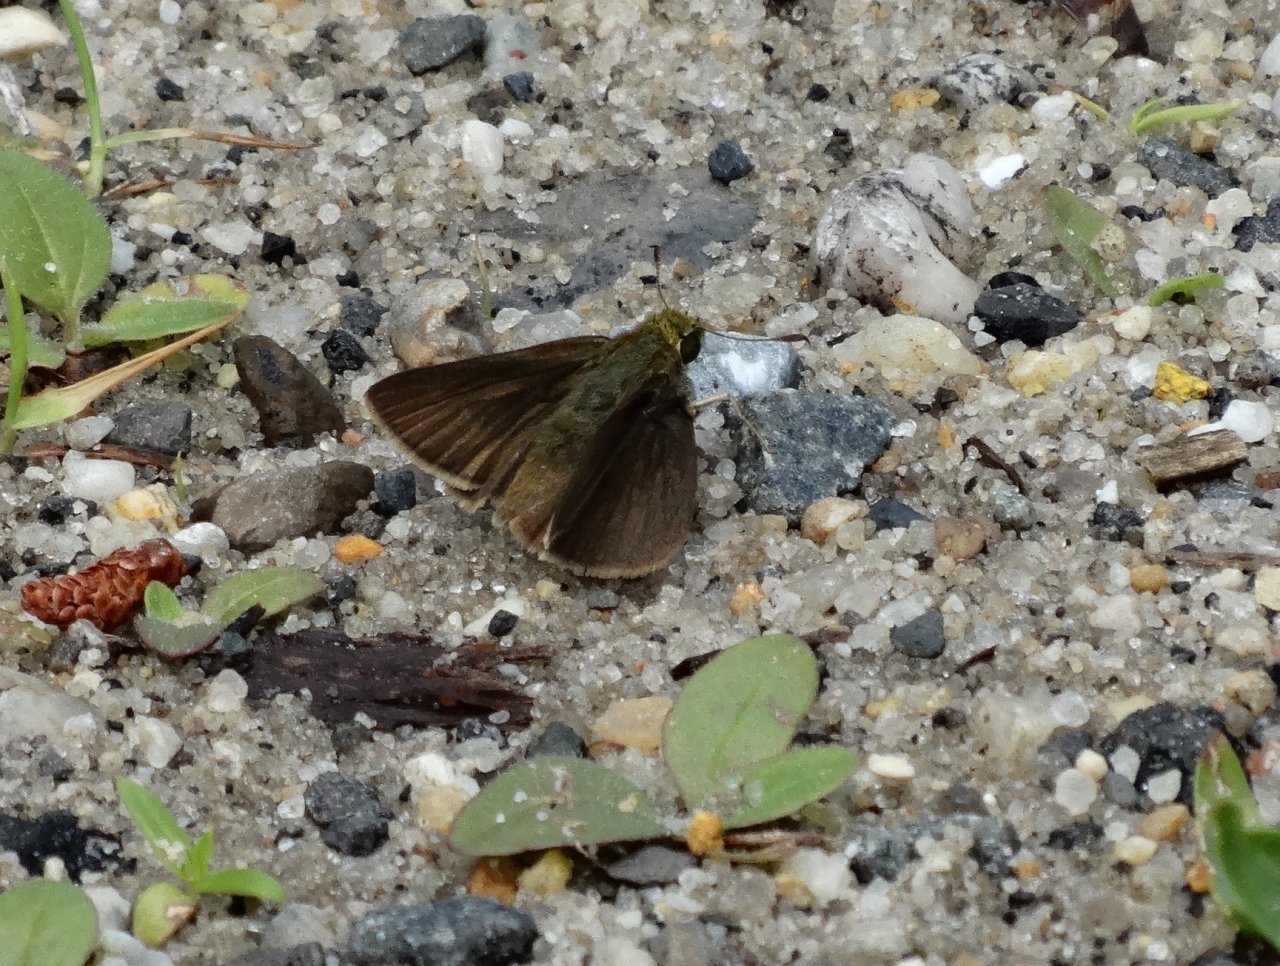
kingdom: Animalia
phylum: Arthropoda
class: Insecta
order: Lepidoptera
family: Hesperiidae
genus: Euphyes
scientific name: Euphyes vestris
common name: Dun Skipper
